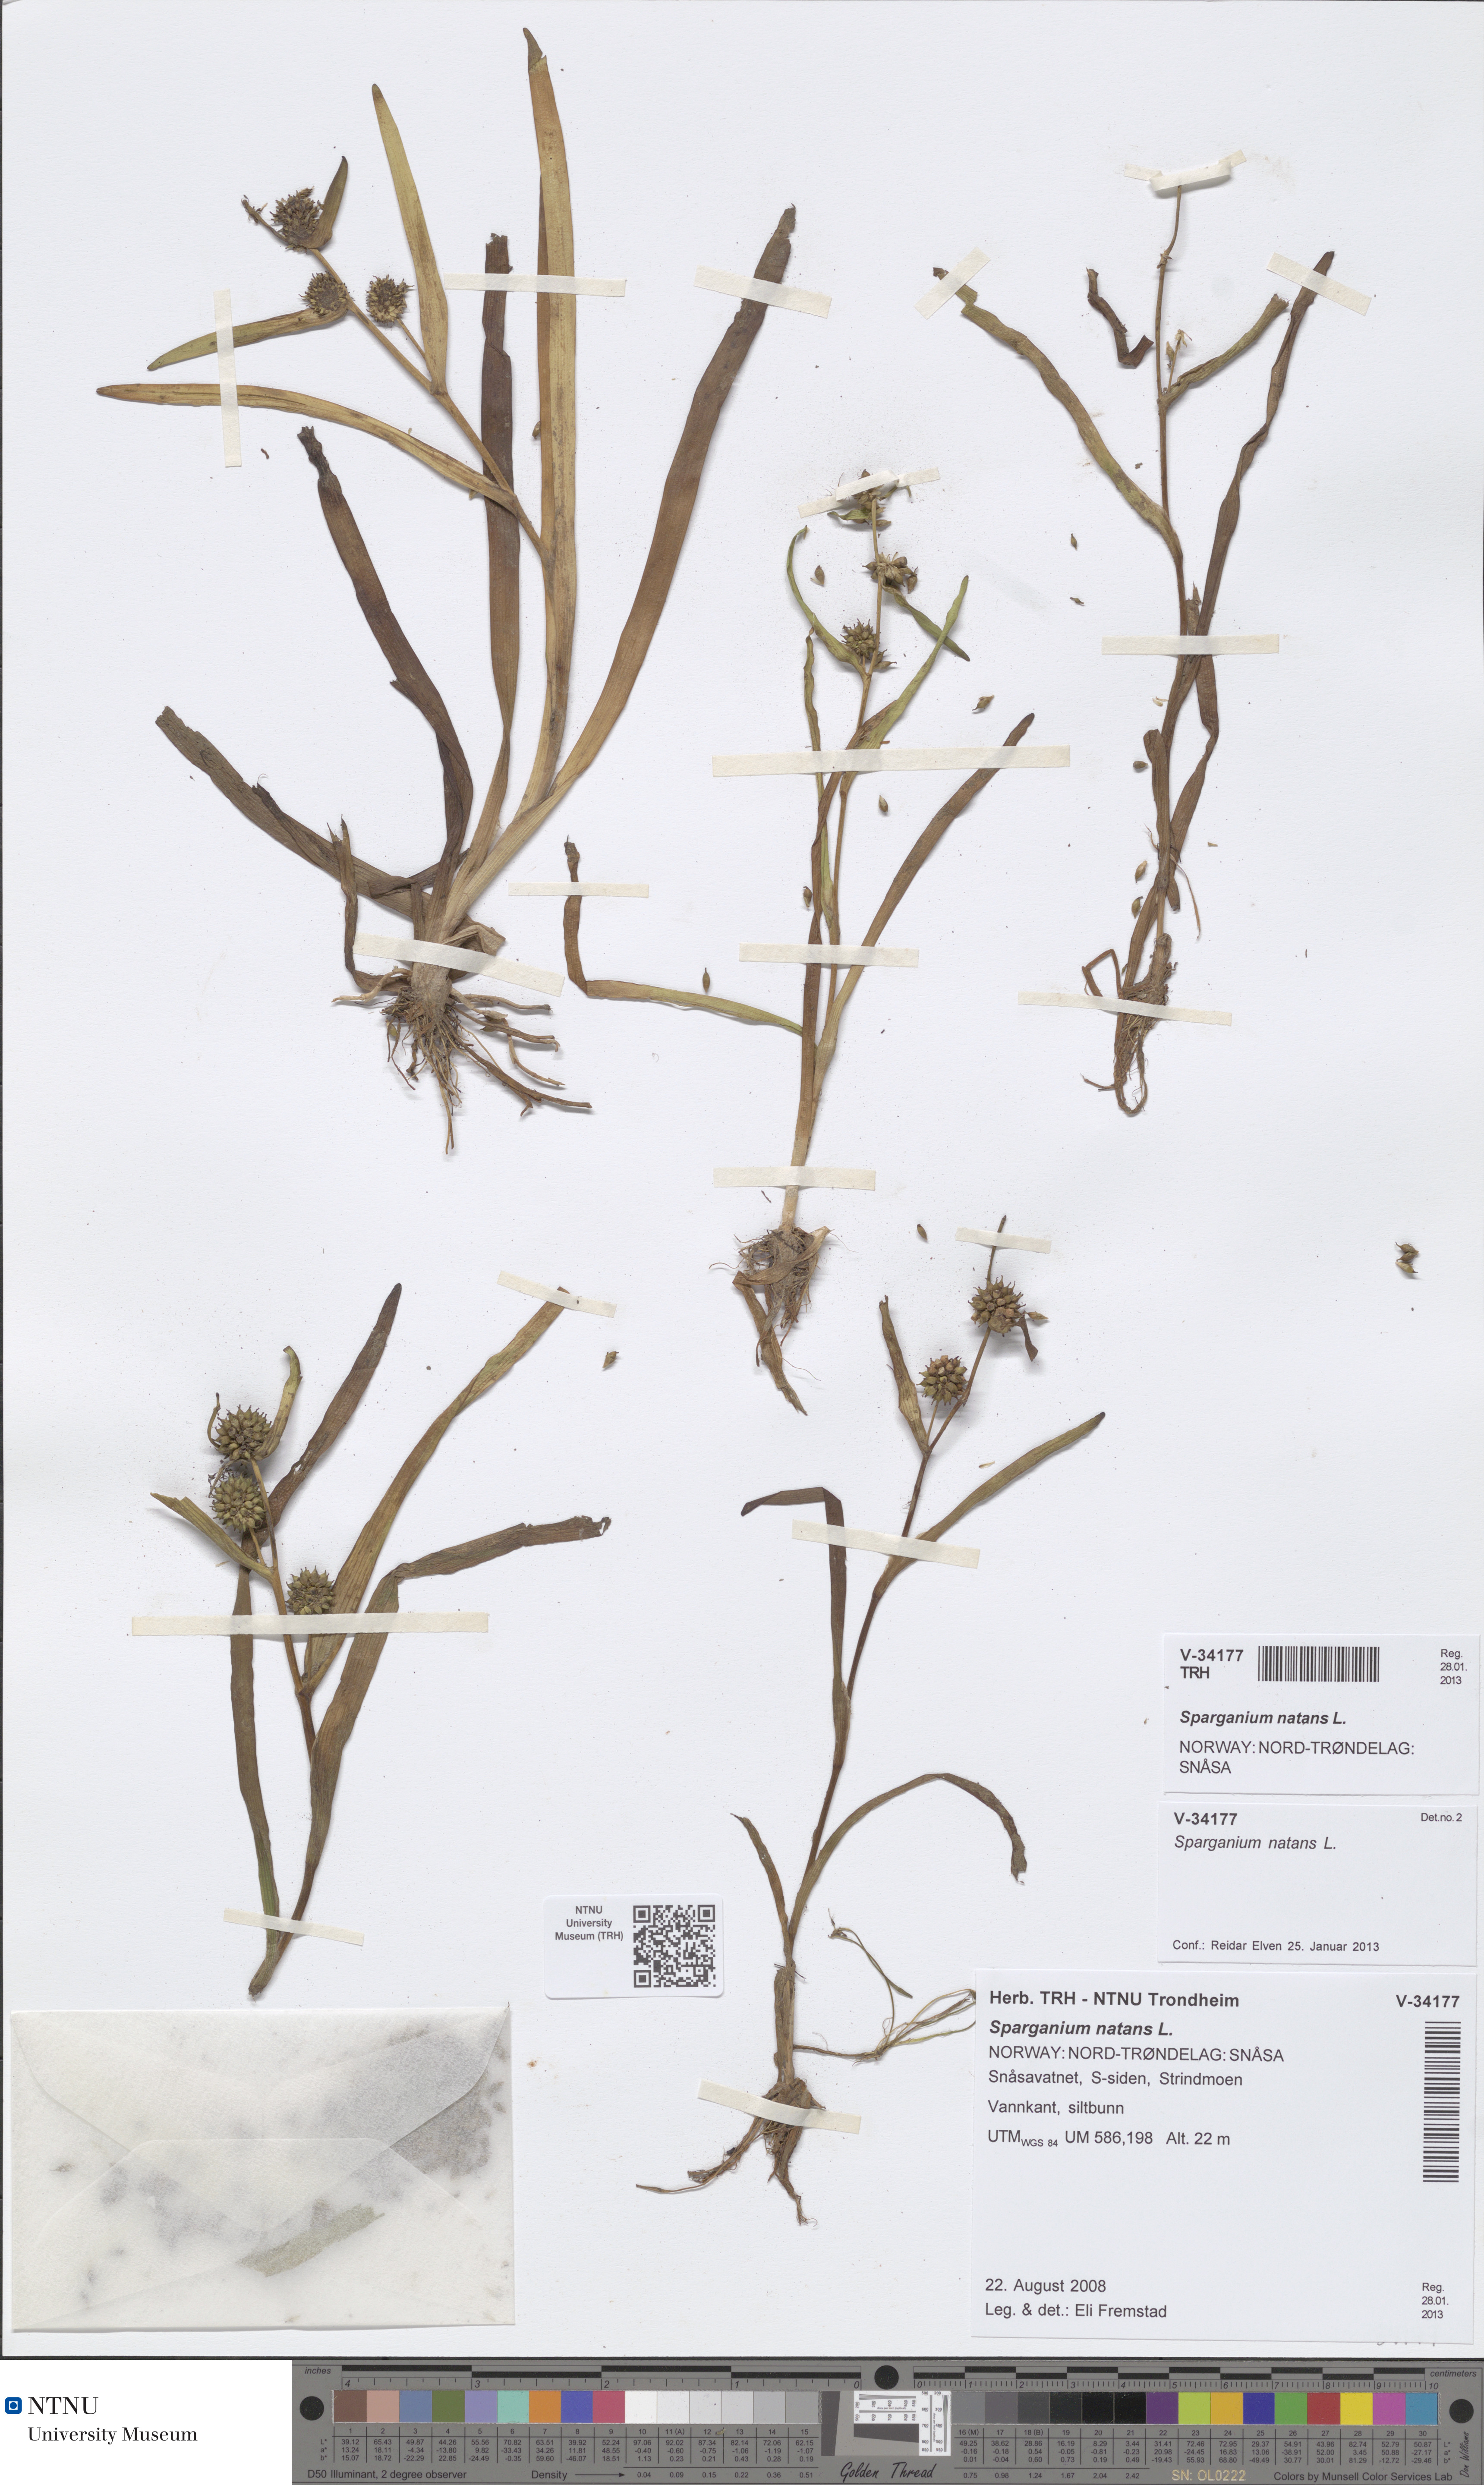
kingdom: Plantae
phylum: Tracheophyta
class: Liliopsida
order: Poales
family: Typhaceae
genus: Sparganium
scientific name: Sparganium natans
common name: Least bur-reed
